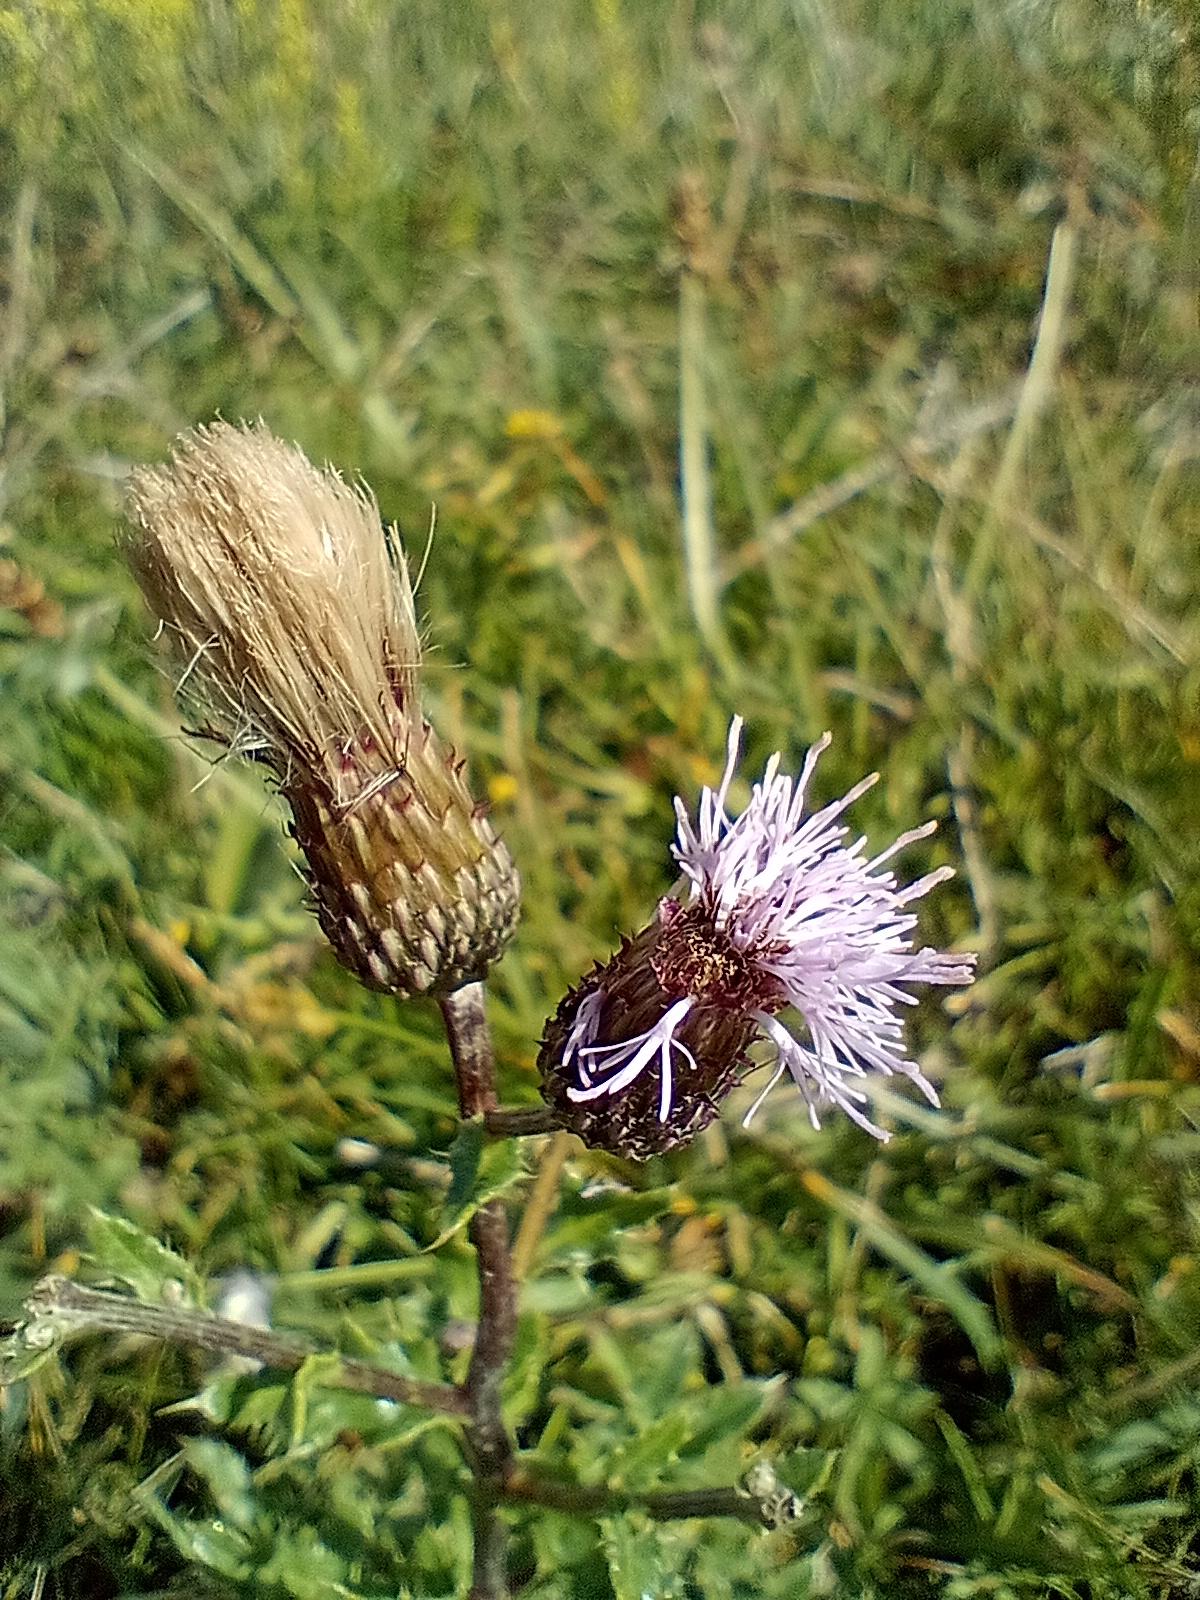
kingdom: Plantae
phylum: Tracheophyta
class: Magnoliopsida
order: Asterales
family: Asteraceae
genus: Cirsium
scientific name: Cirsium arvense
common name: Ager-tidsel
